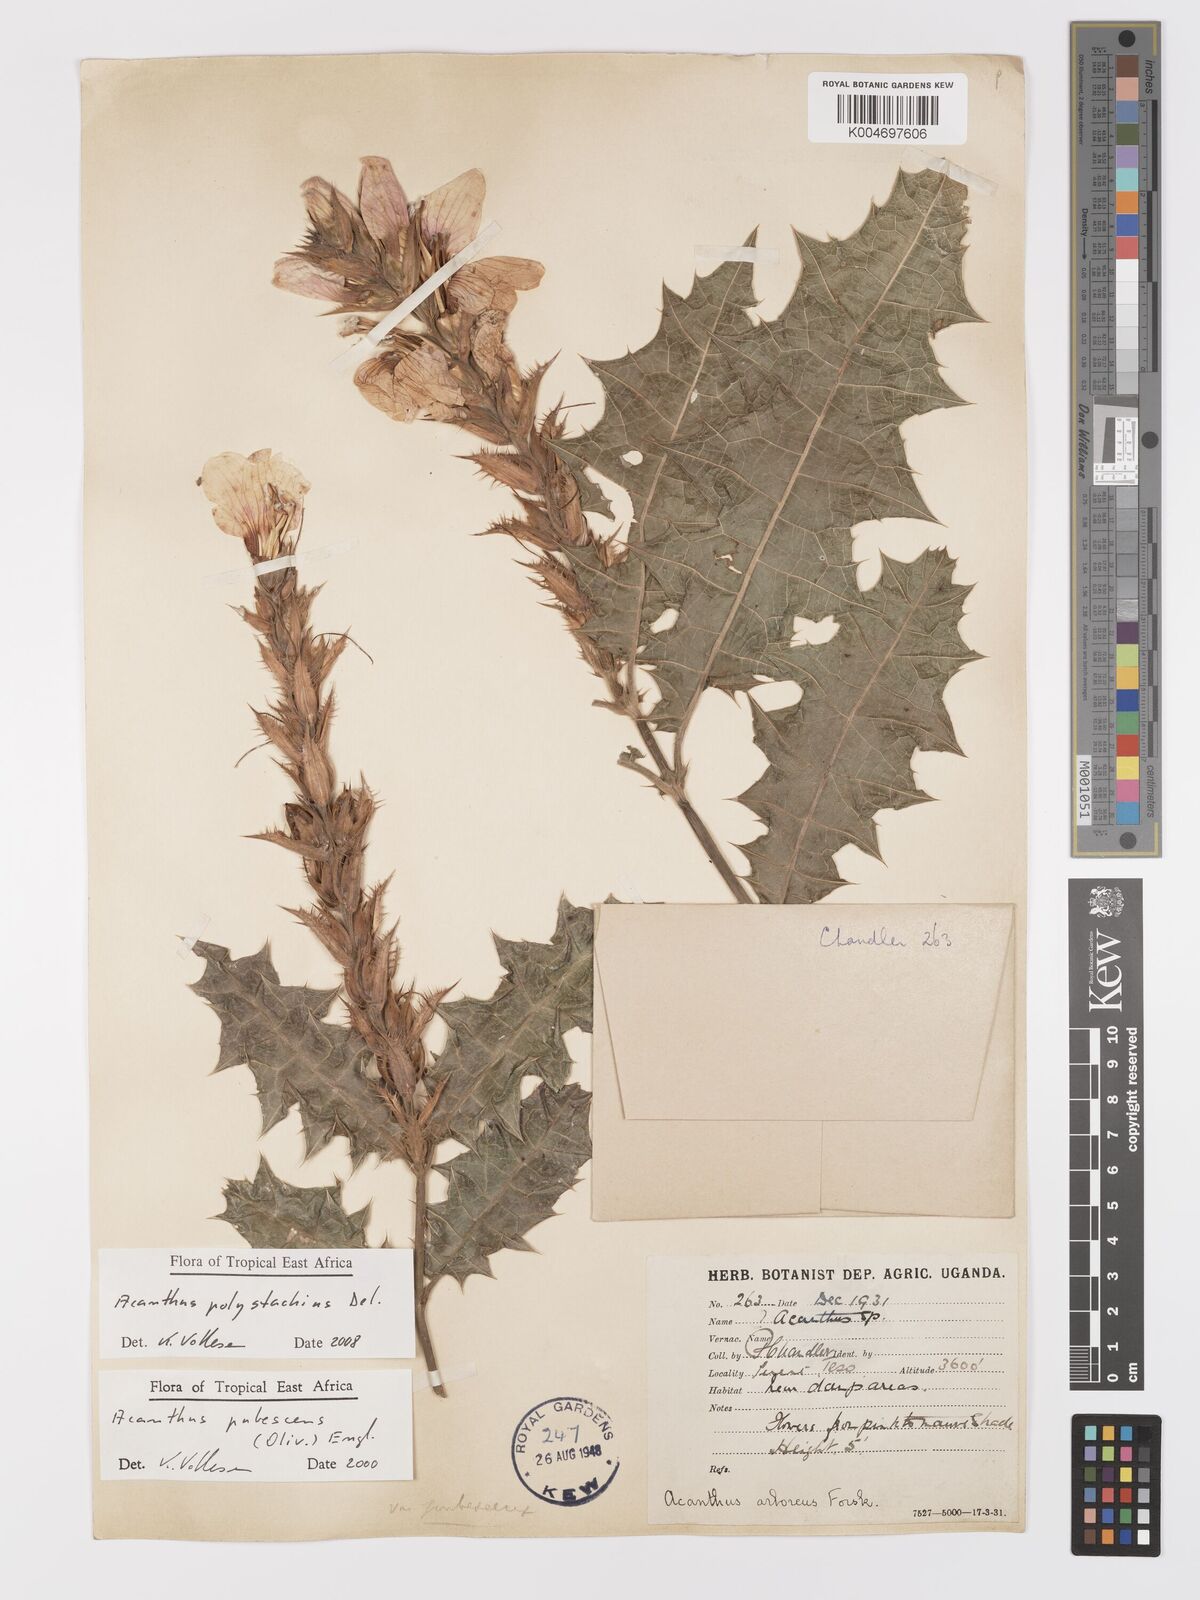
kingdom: Plantae
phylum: Tracheophyta
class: Magnoliopsida
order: Lamiales
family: Acanthaceae
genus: Acanthus
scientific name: Acanthus polystachyus
